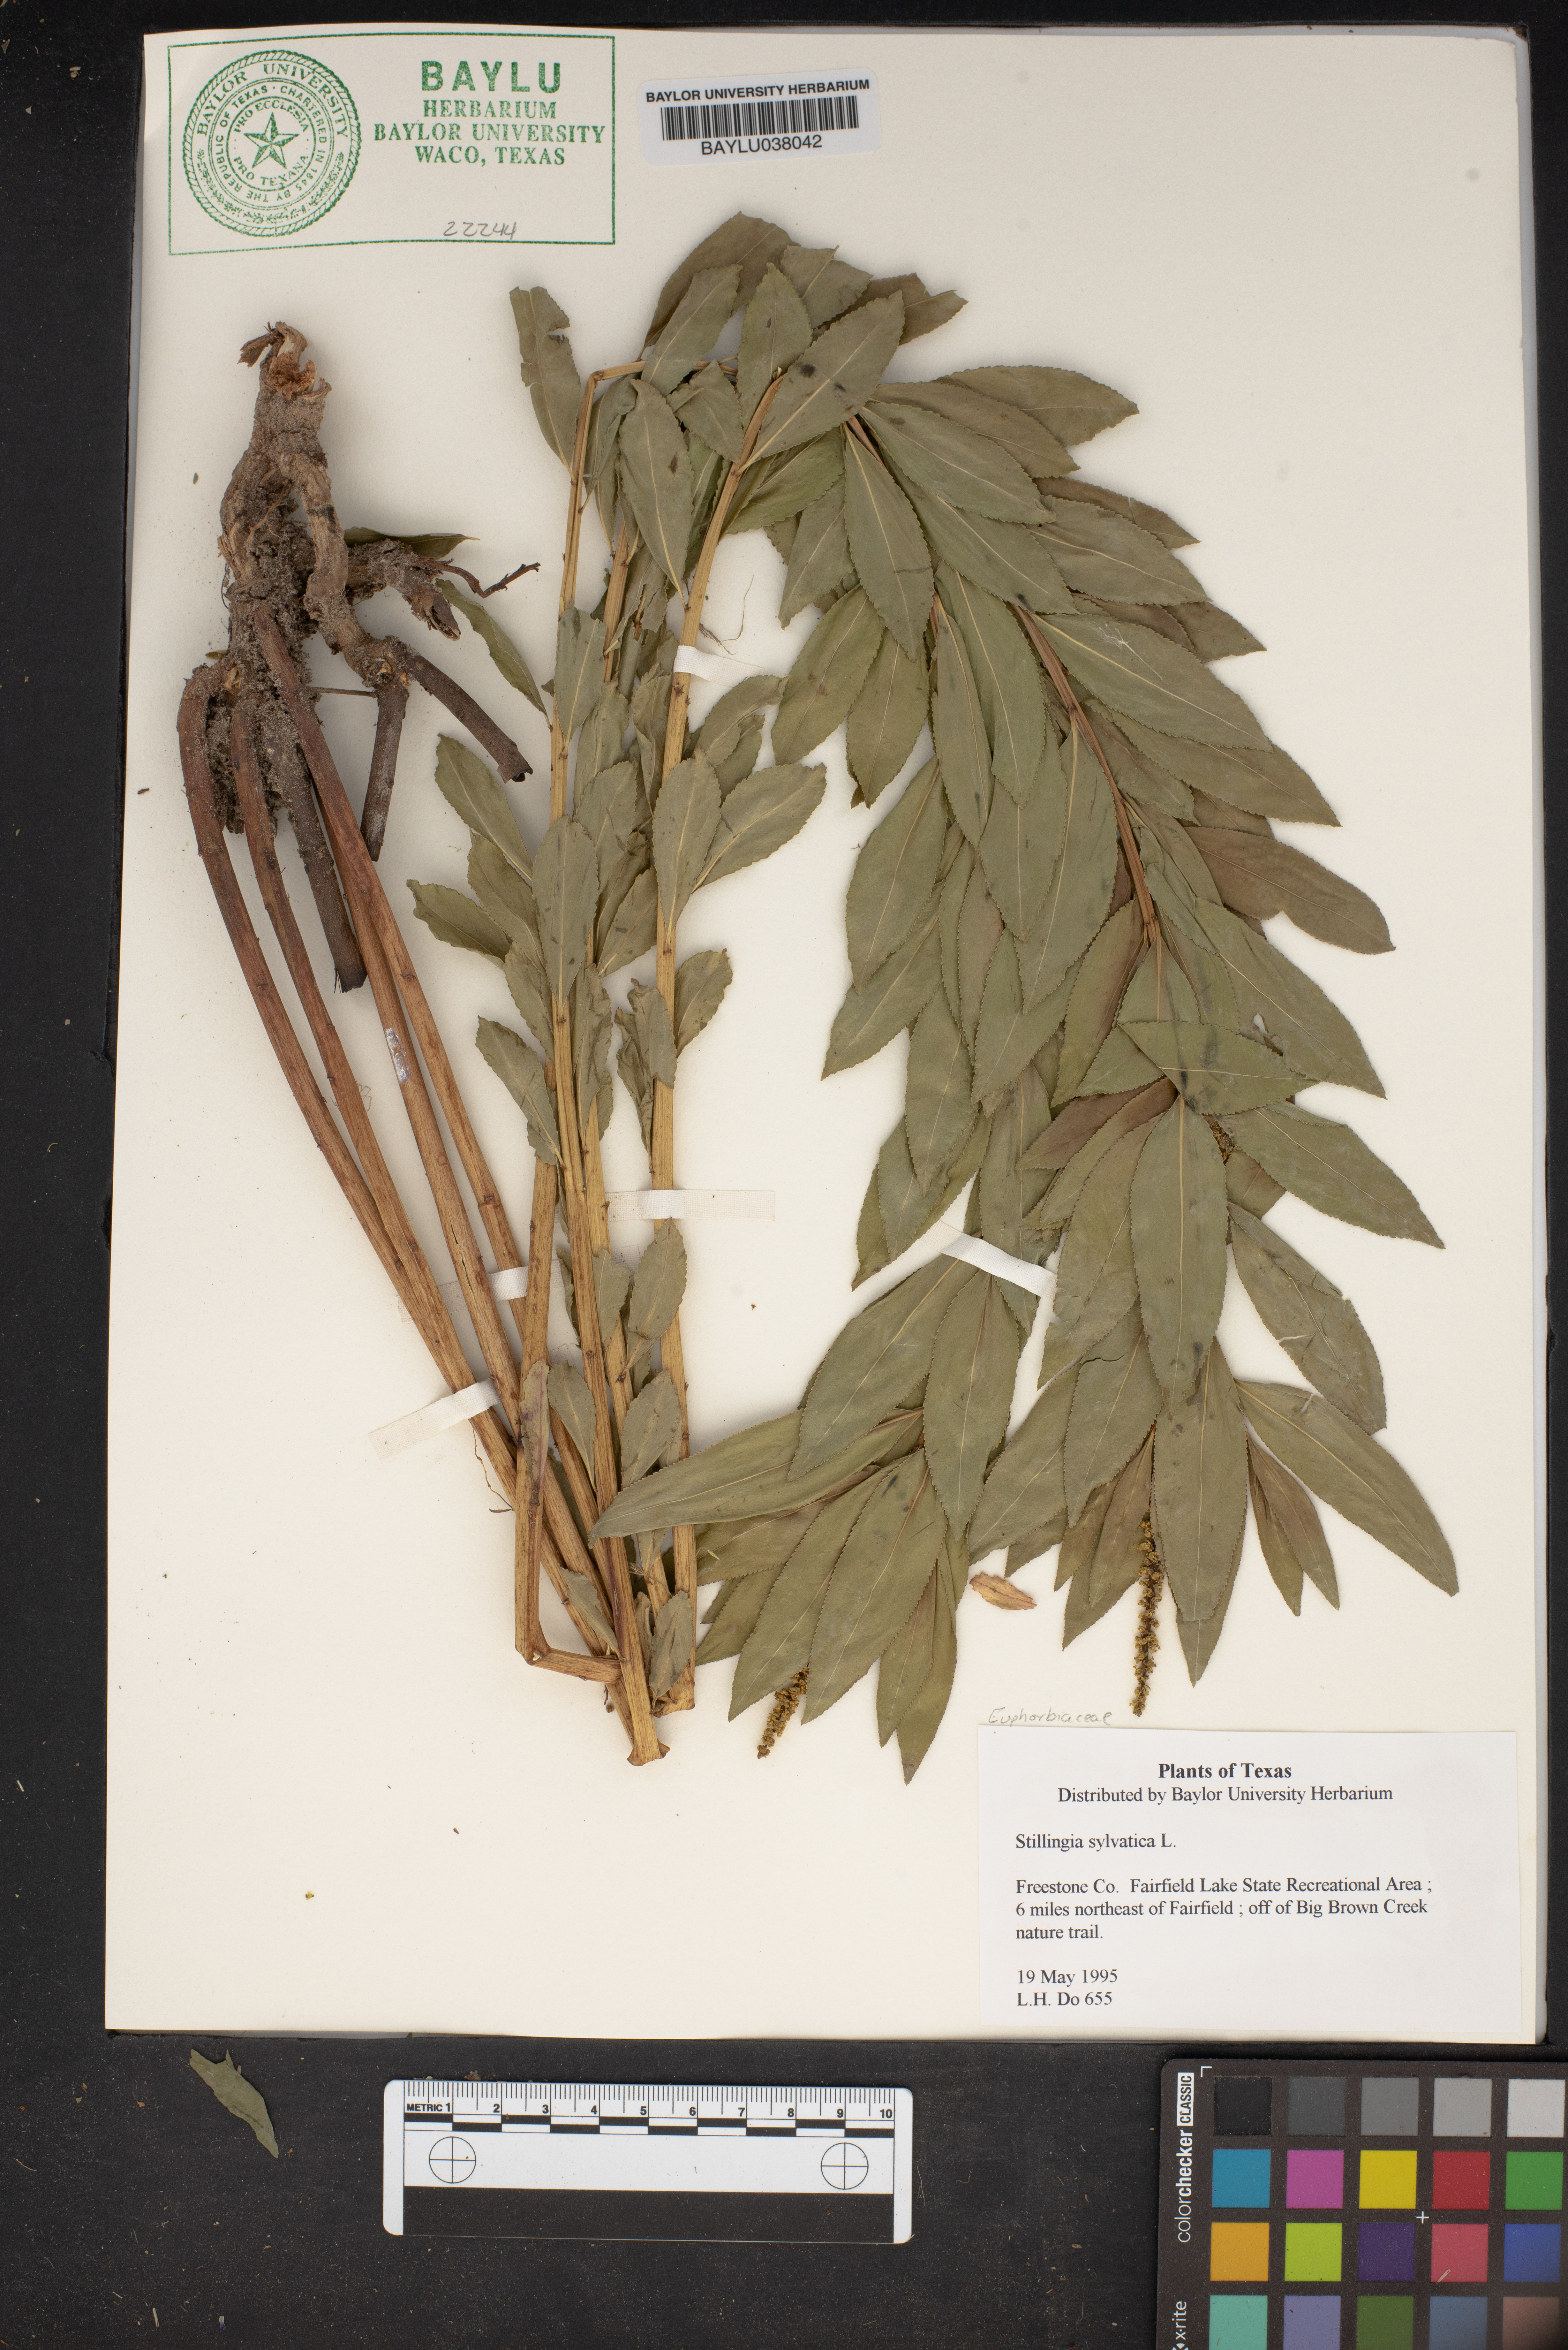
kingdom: Plantae
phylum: Tracheophyta
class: Magnoliopsida
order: Malpighiales
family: Euphorbiaceae
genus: Stillingia
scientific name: Stillingia sylvatica
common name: Queen's-delight
